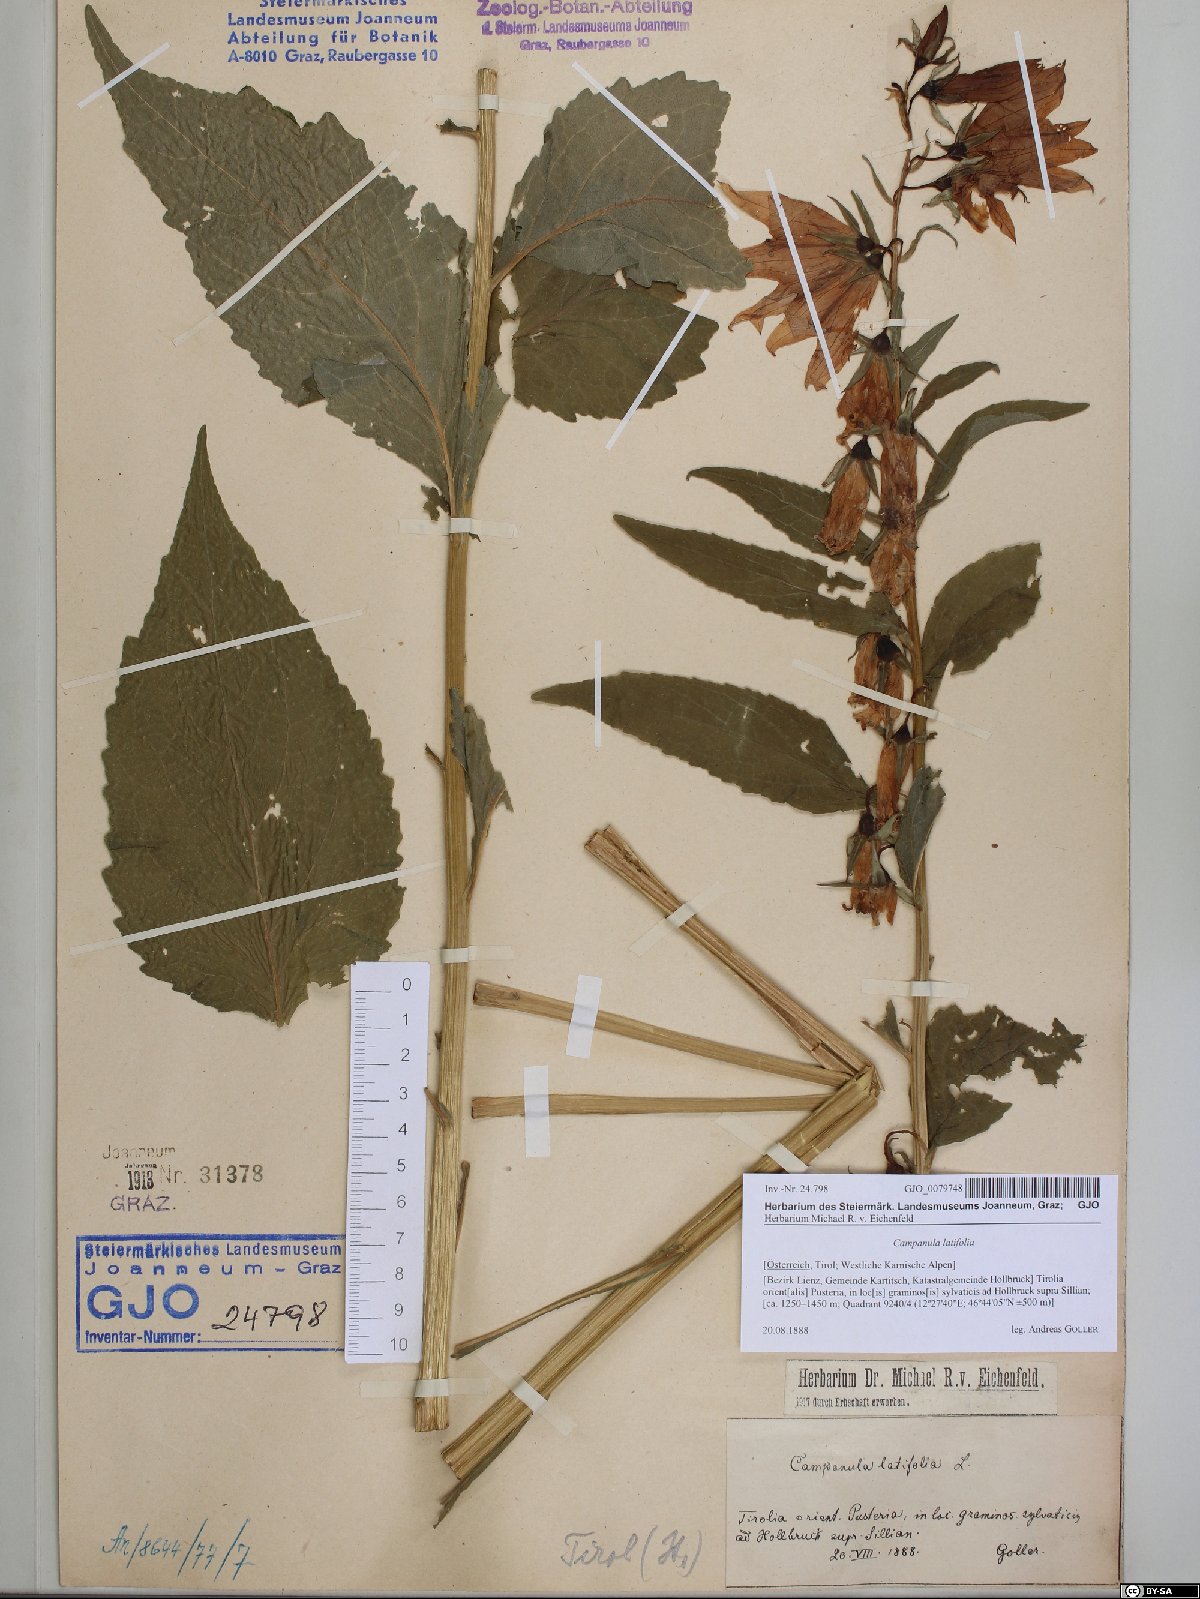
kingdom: Plantae
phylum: Tracheophyta
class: Magnoliopsida
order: Asterales
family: Campanulaceae
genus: Campanula
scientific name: Campanula latifolia
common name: Giant bellflower
